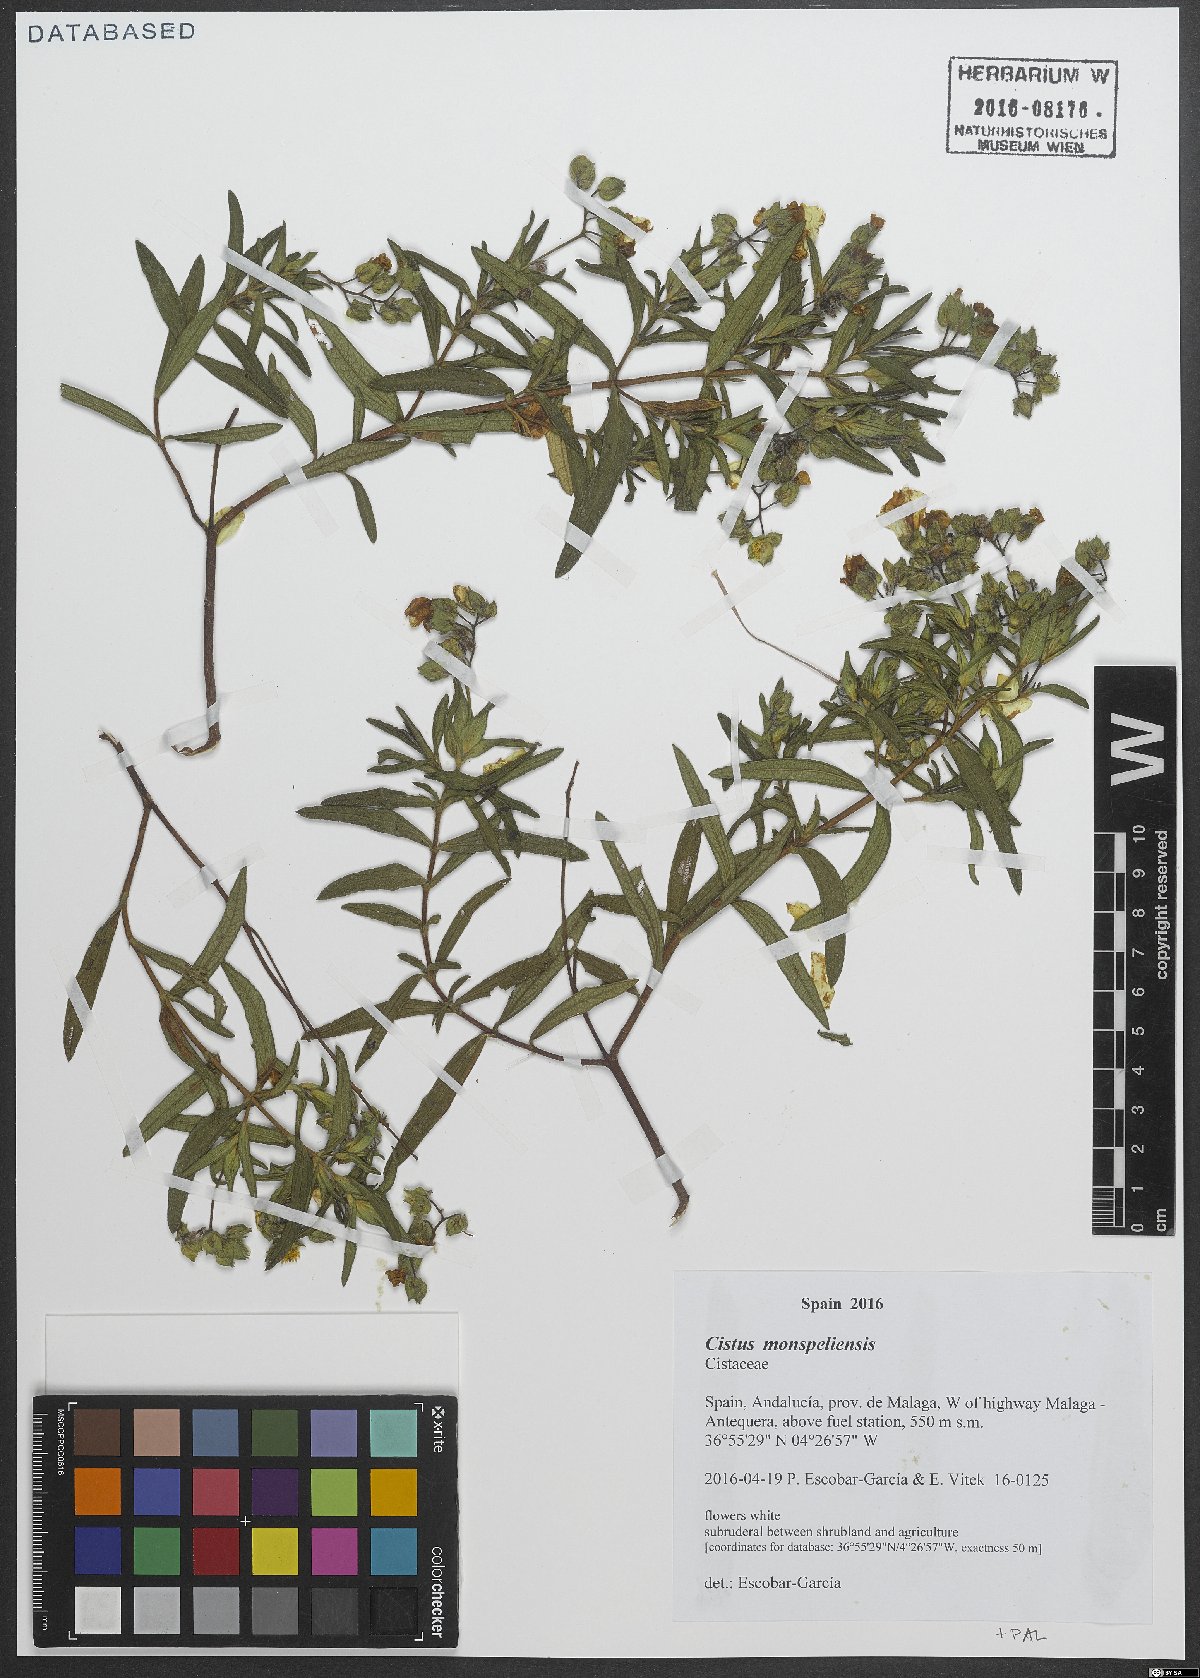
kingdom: Plantae
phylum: Tracheophyta
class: Magnoliopsida
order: Malvales
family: Cistaceae
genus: Cistus
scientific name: Cistus monspeliensis
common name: Montpelier cistus
